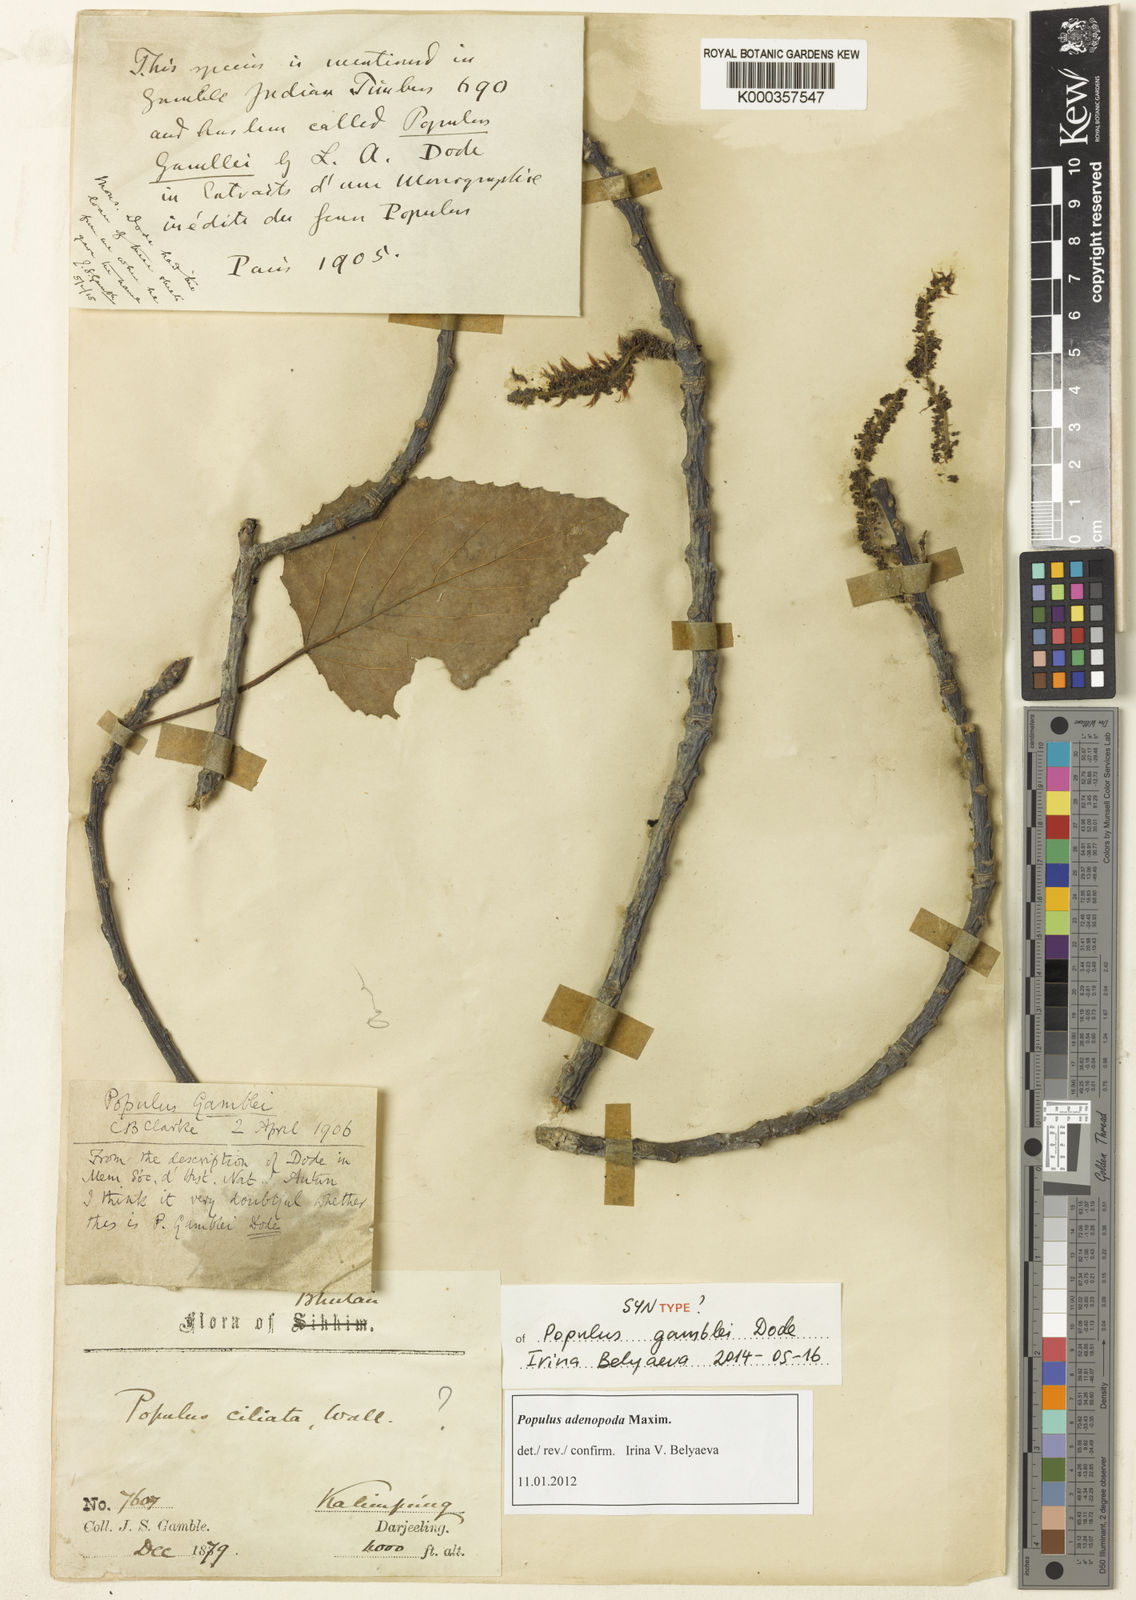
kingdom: Plantae
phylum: Tracheophyta
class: Magnoliopsida
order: Malpighiales
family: Salicaceae
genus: Populus
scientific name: Populus
